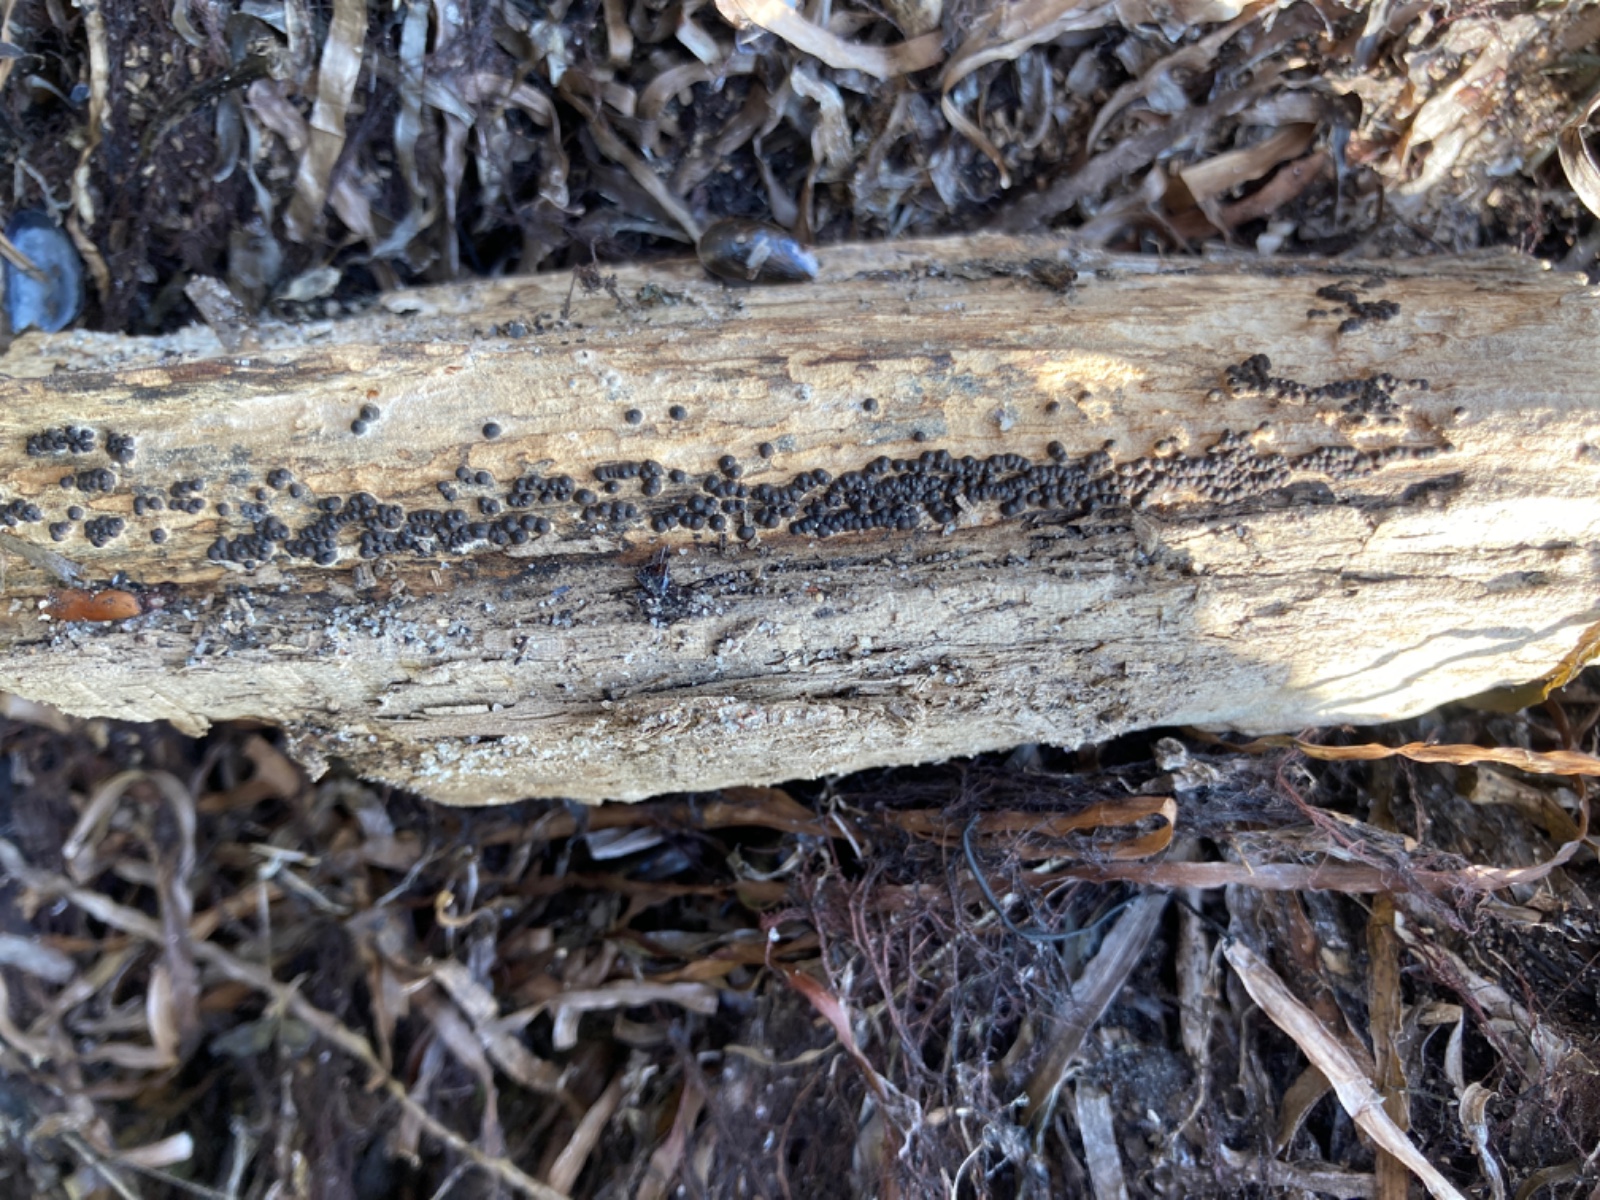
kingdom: Fungi
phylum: Ascomycota
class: Sordariomycetes
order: Xylariales
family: Xylariaceae
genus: Nemania
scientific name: Nemania maritima
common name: strand-kuldyne
